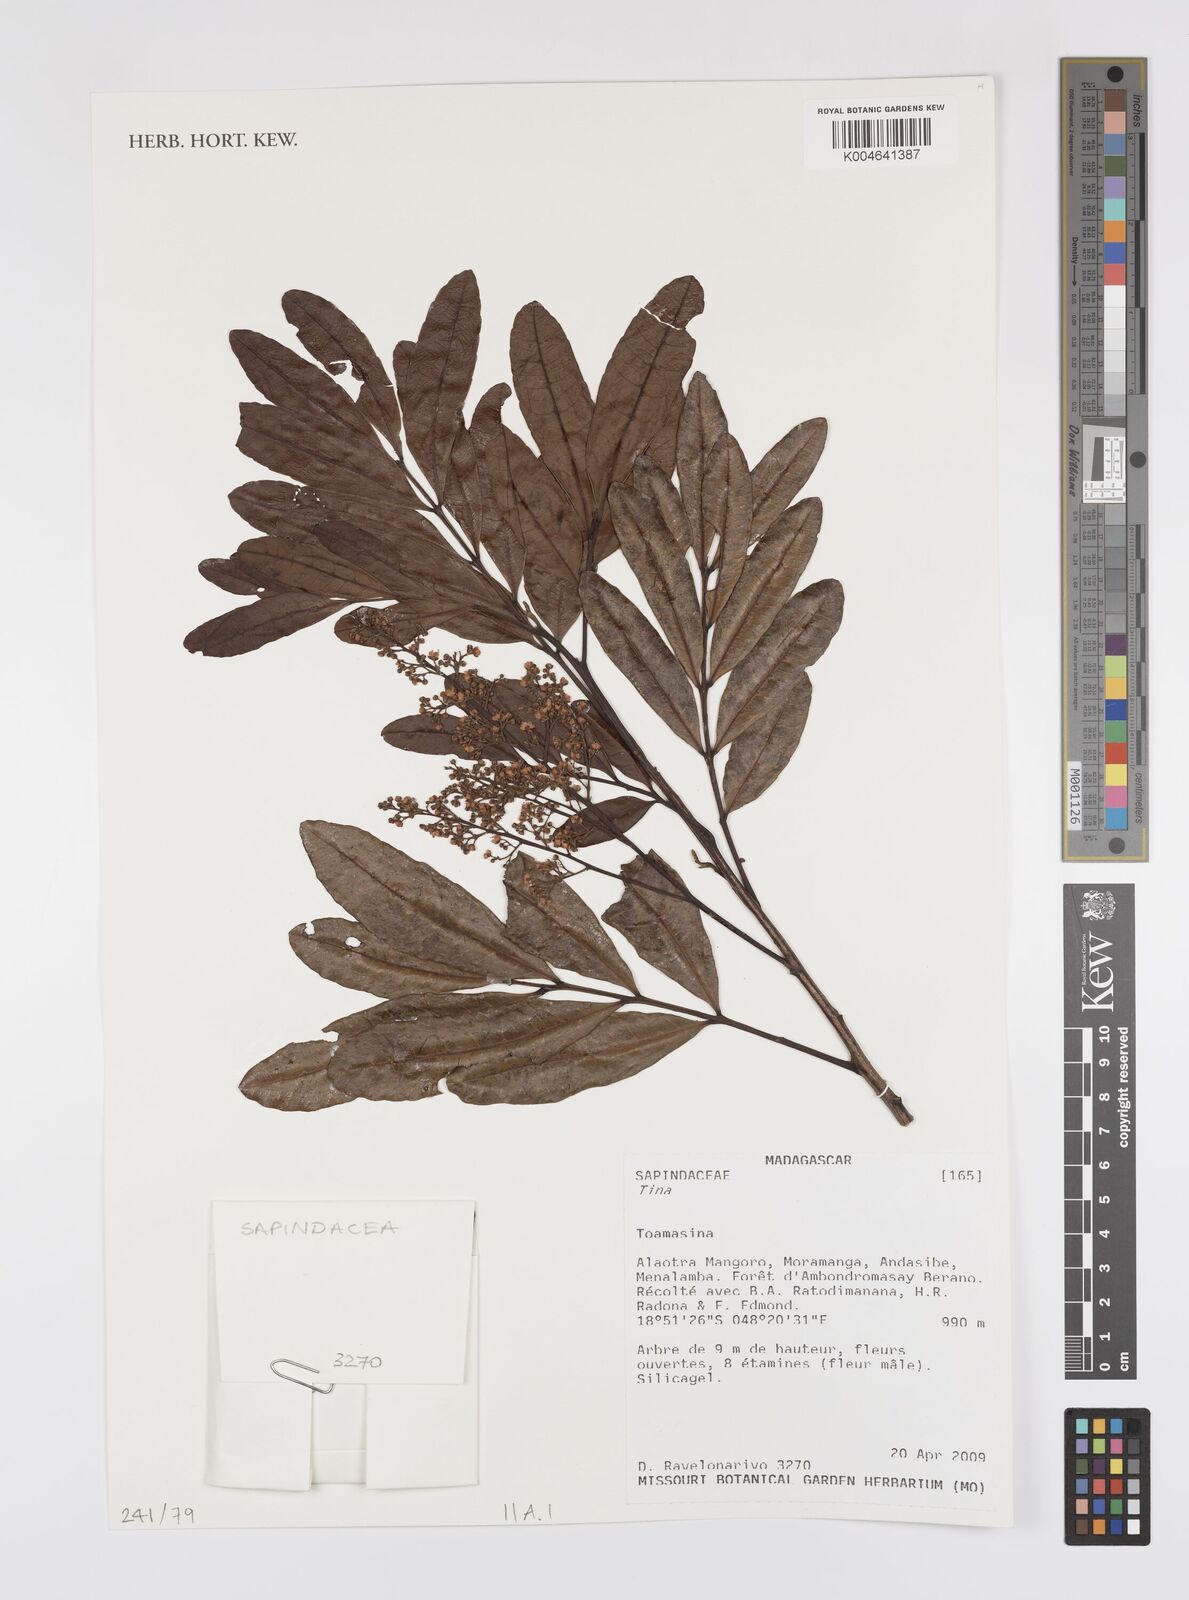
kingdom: Plantae
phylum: Tracheophyta
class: Magnoliopsida
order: Sapindales
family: Sapindaceae
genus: Tina
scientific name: Tina
